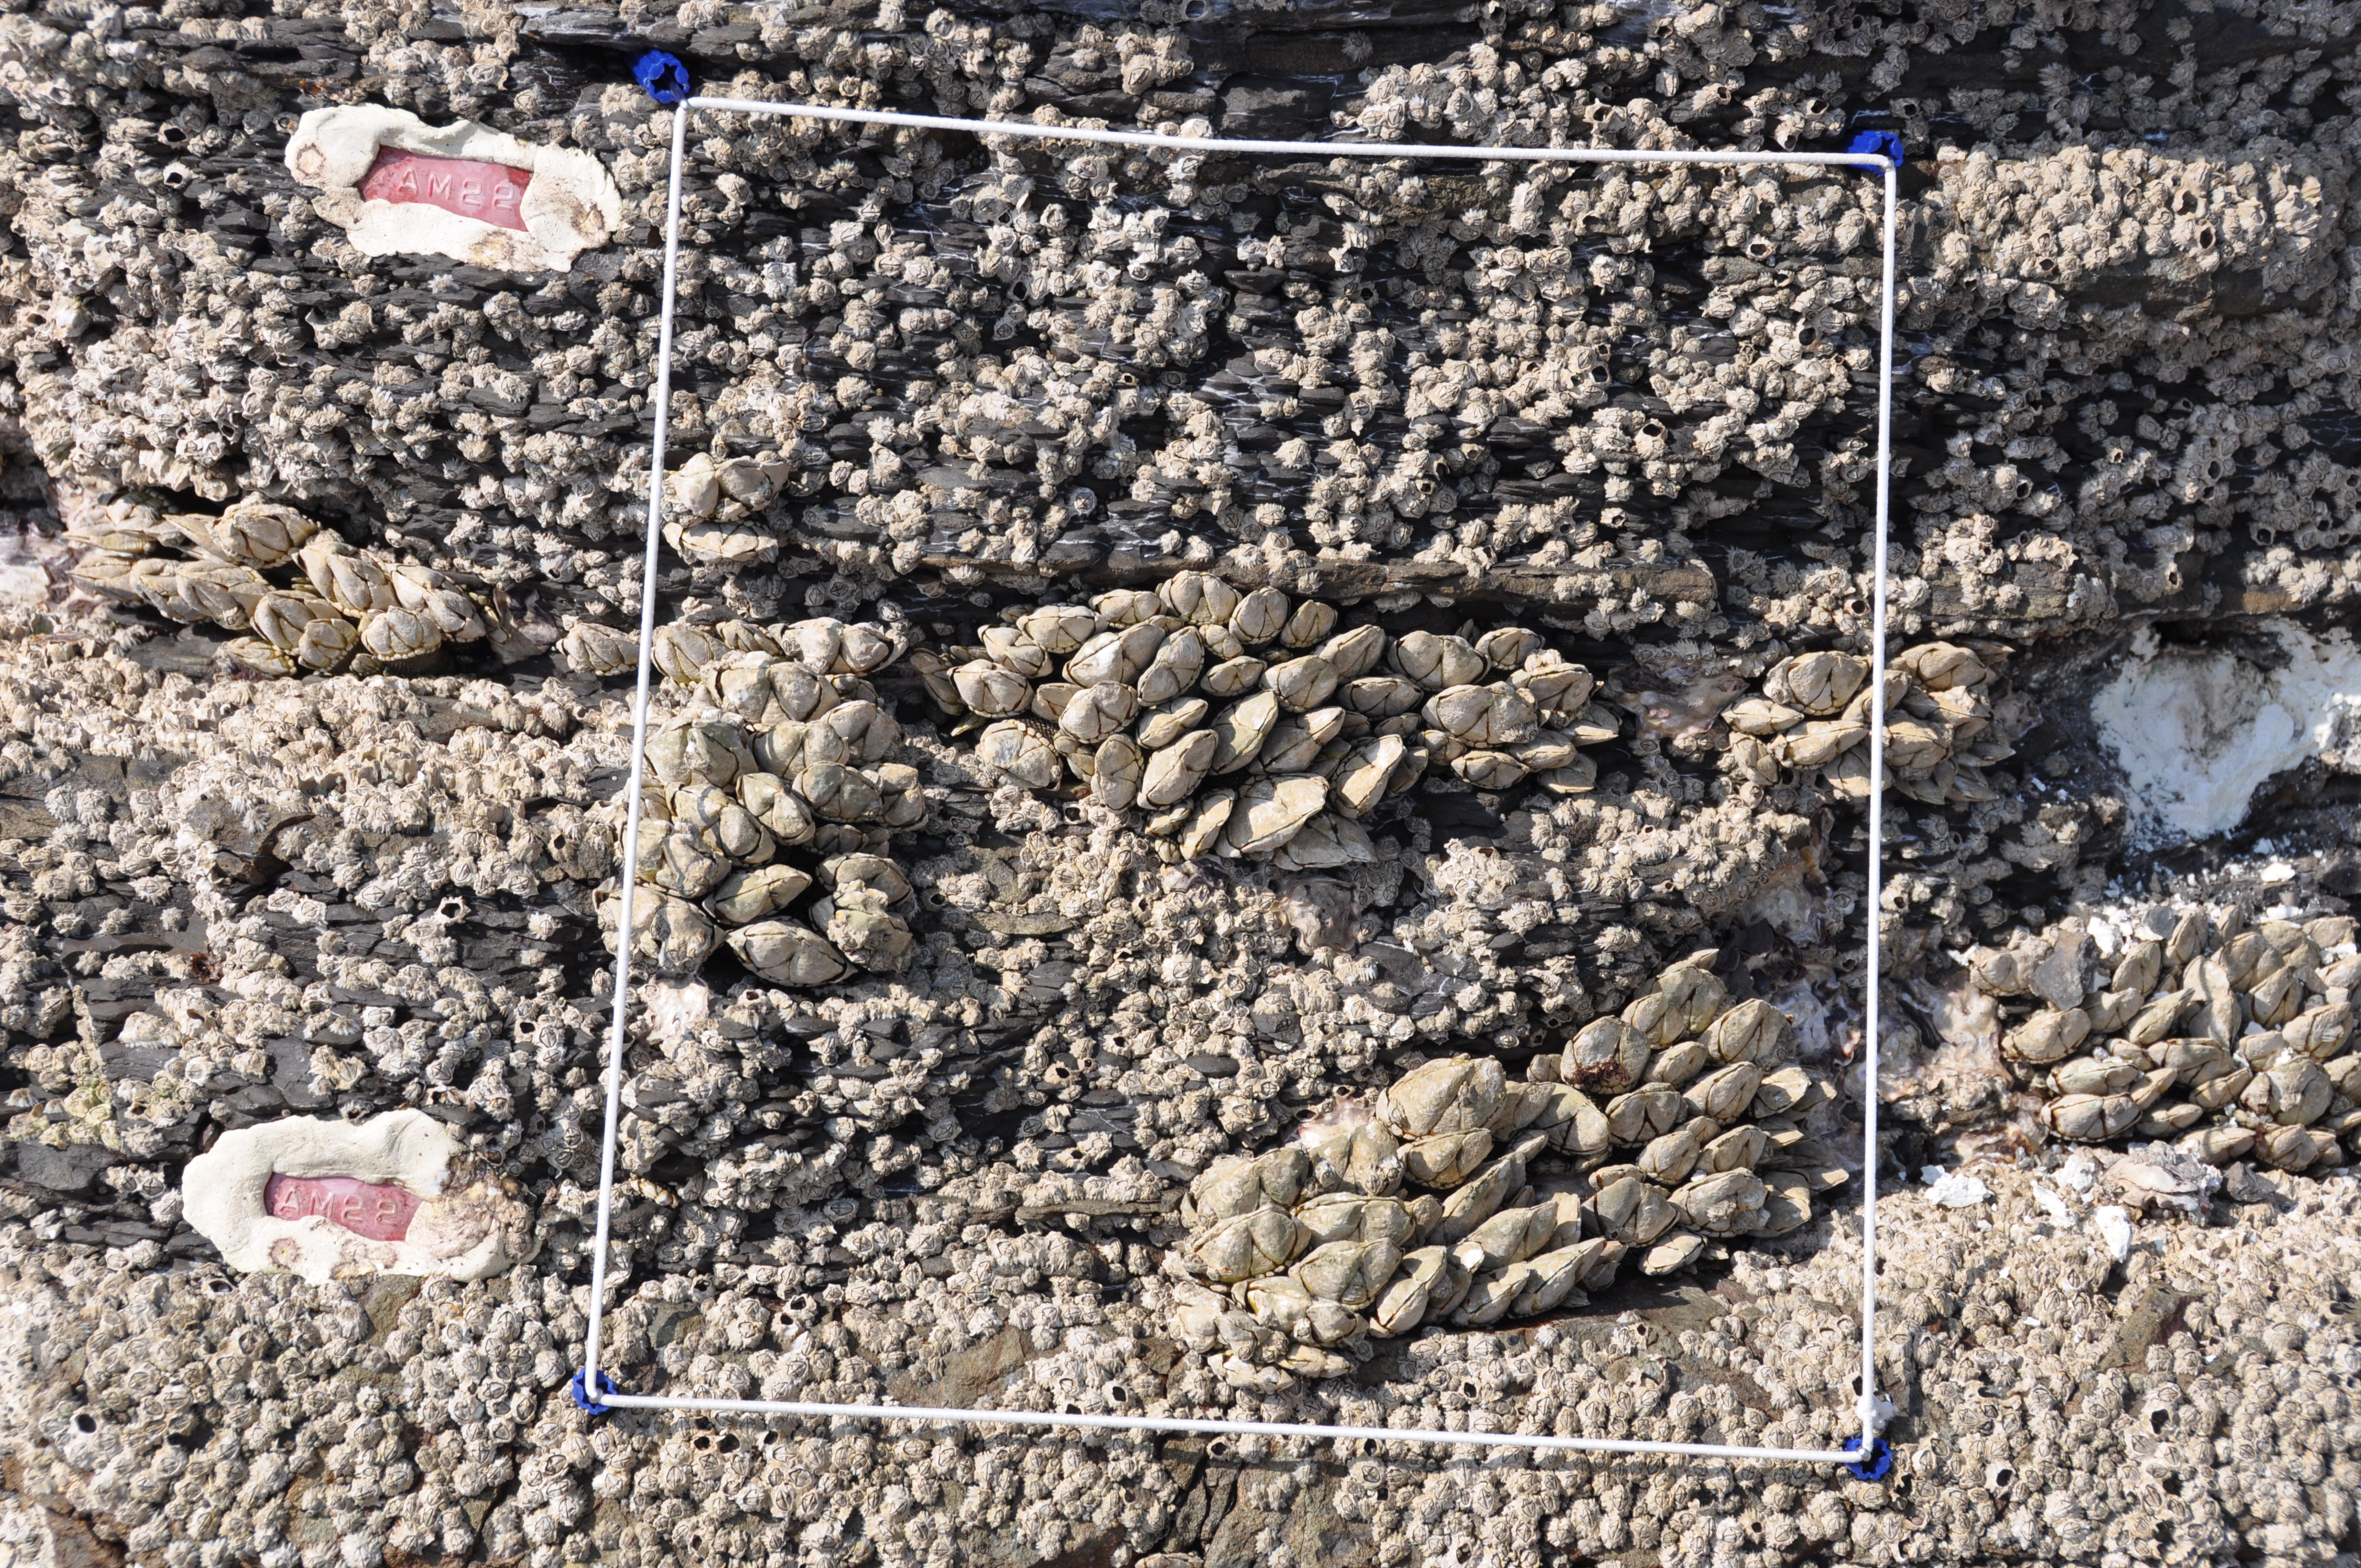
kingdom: Animalia
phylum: Arthropoda
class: Maxillopoda
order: Sessilia
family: Chthamalidae
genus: Chthamalus
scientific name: Chthamalus challengeri
